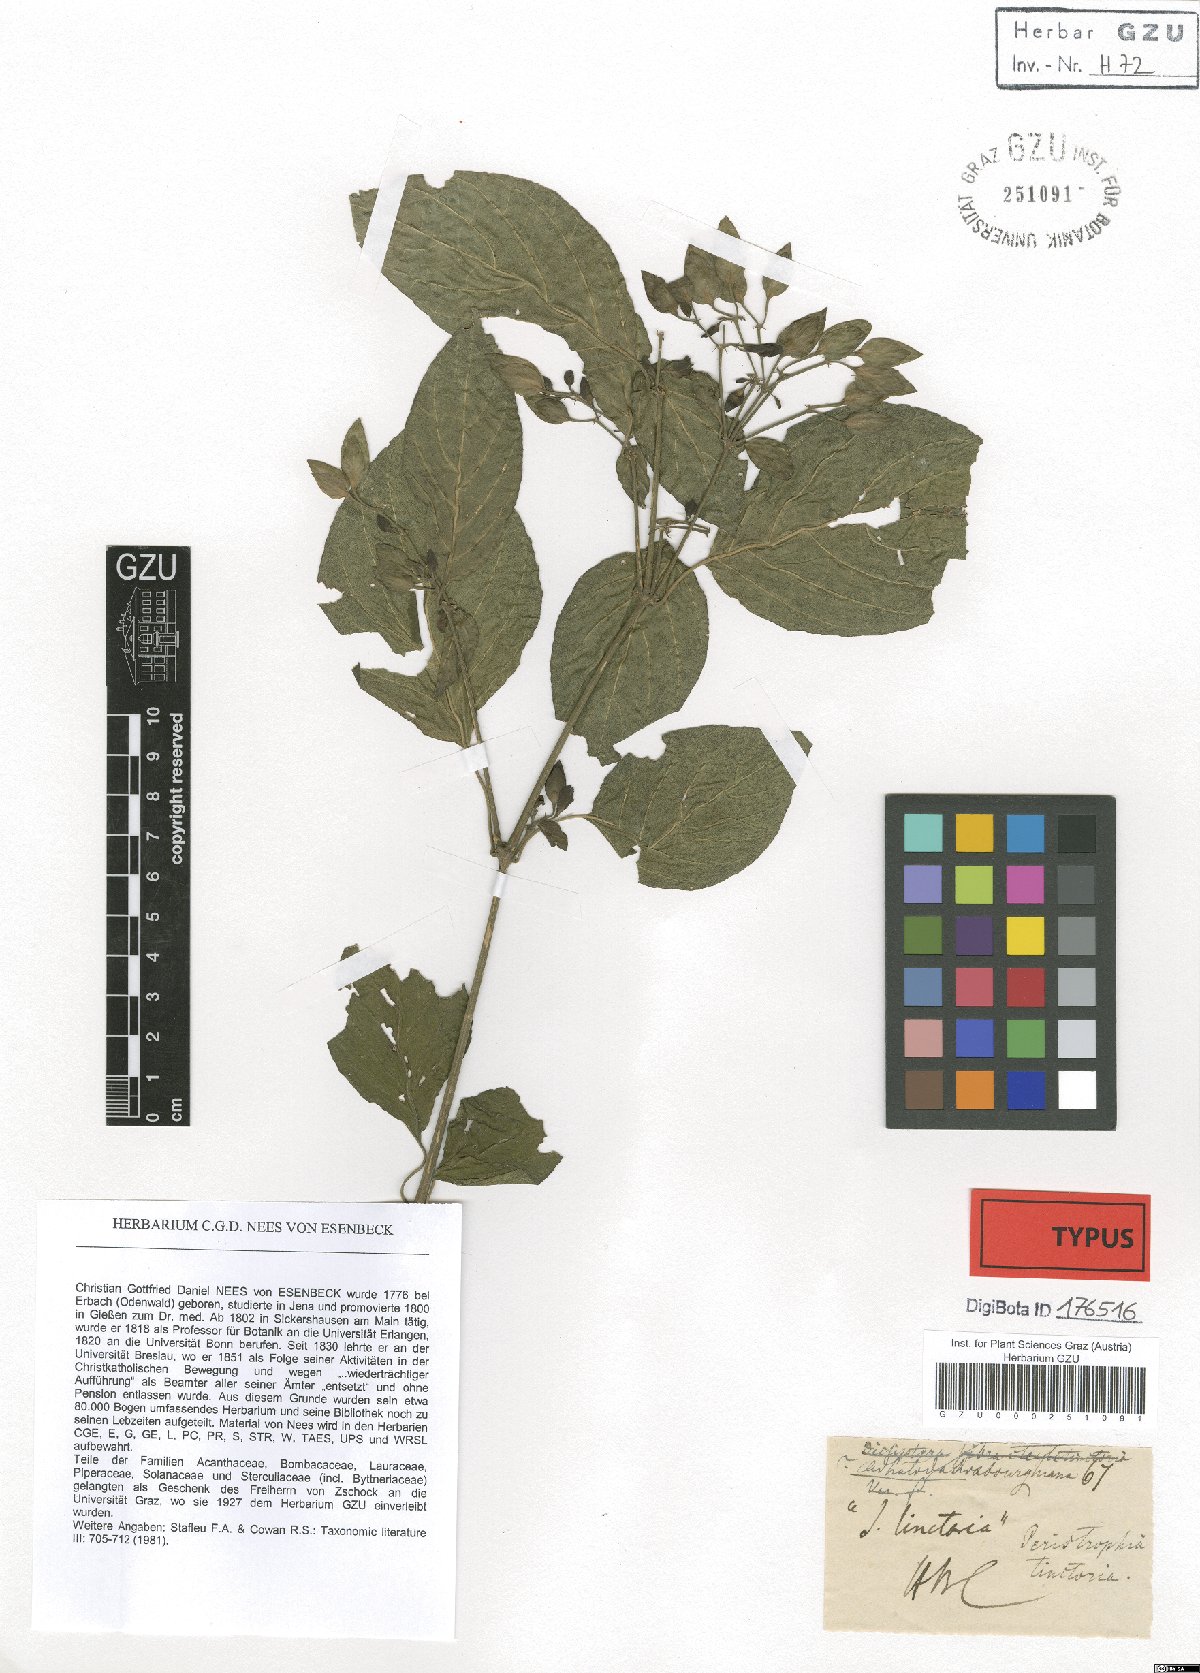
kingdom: Plantae
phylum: Tracheophyta
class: Magnoliopsida
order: Lamiales
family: Acanthaceae
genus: Dicliptera
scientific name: Dicliptera tinctoria
